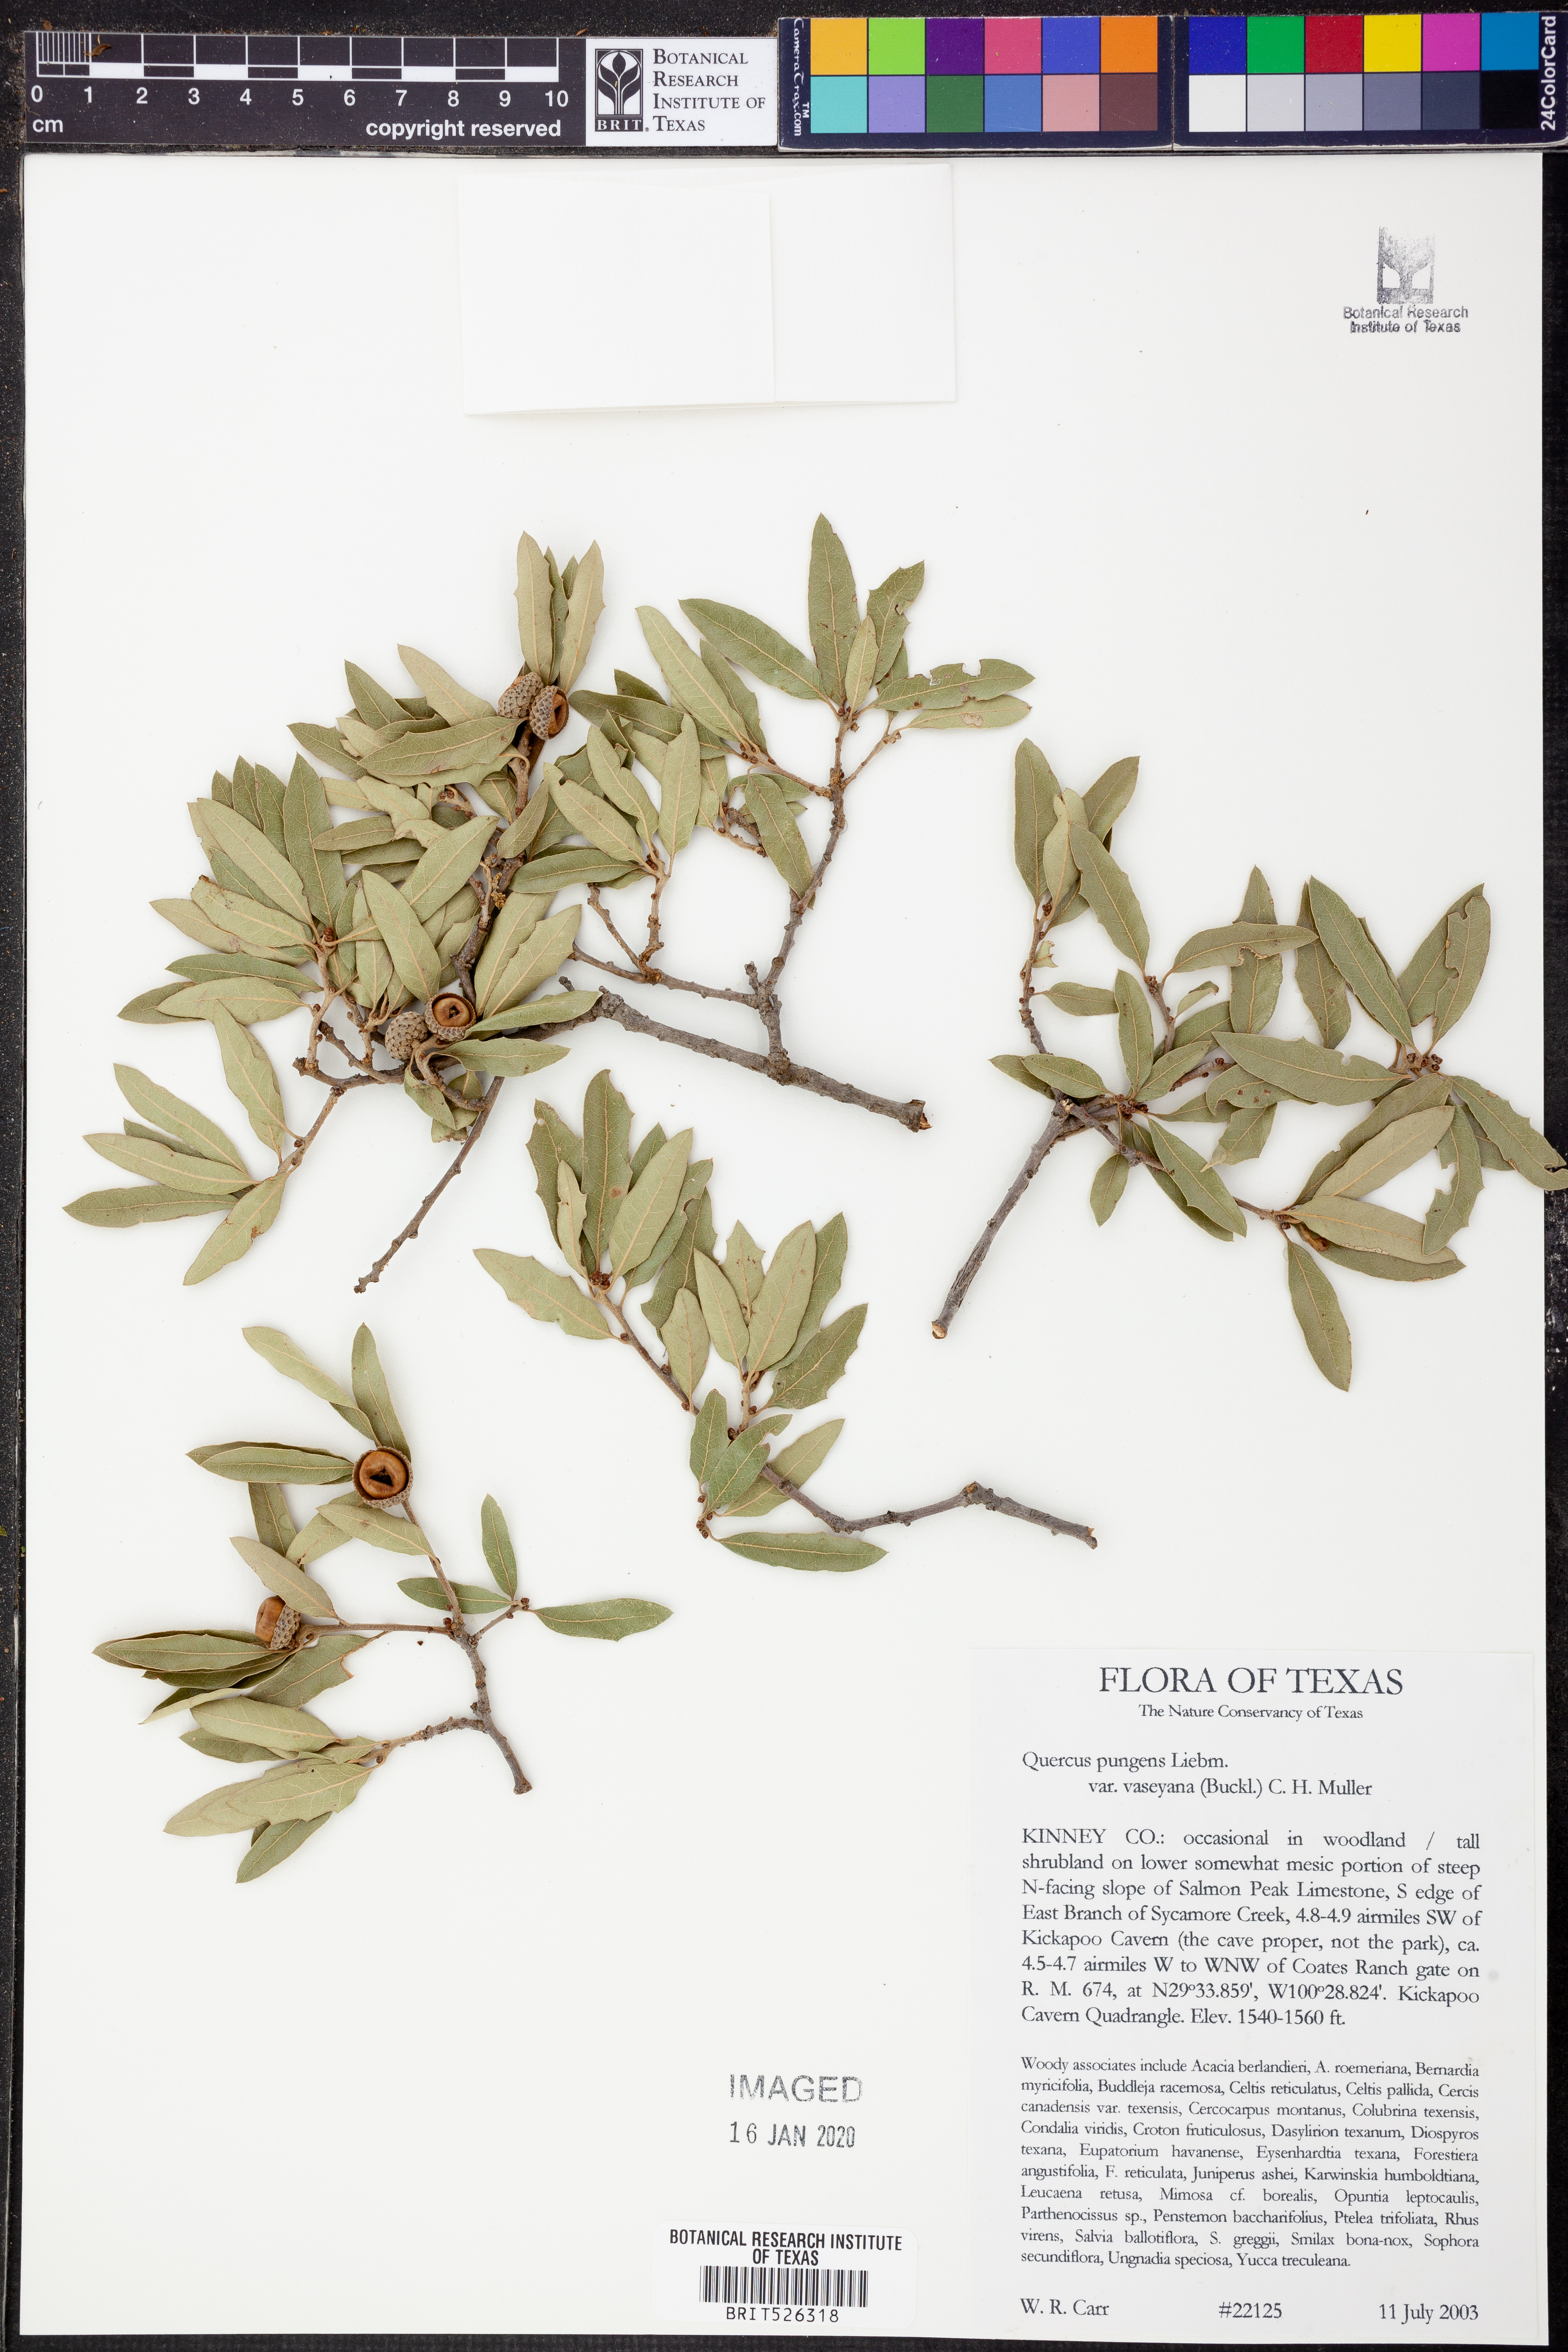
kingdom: Plantae
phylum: Tracheophyta
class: Magnoliopsida
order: Fagales
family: Fagaceae
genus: Quercus
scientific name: Quercus vaseyana
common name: Sandpaper oak
